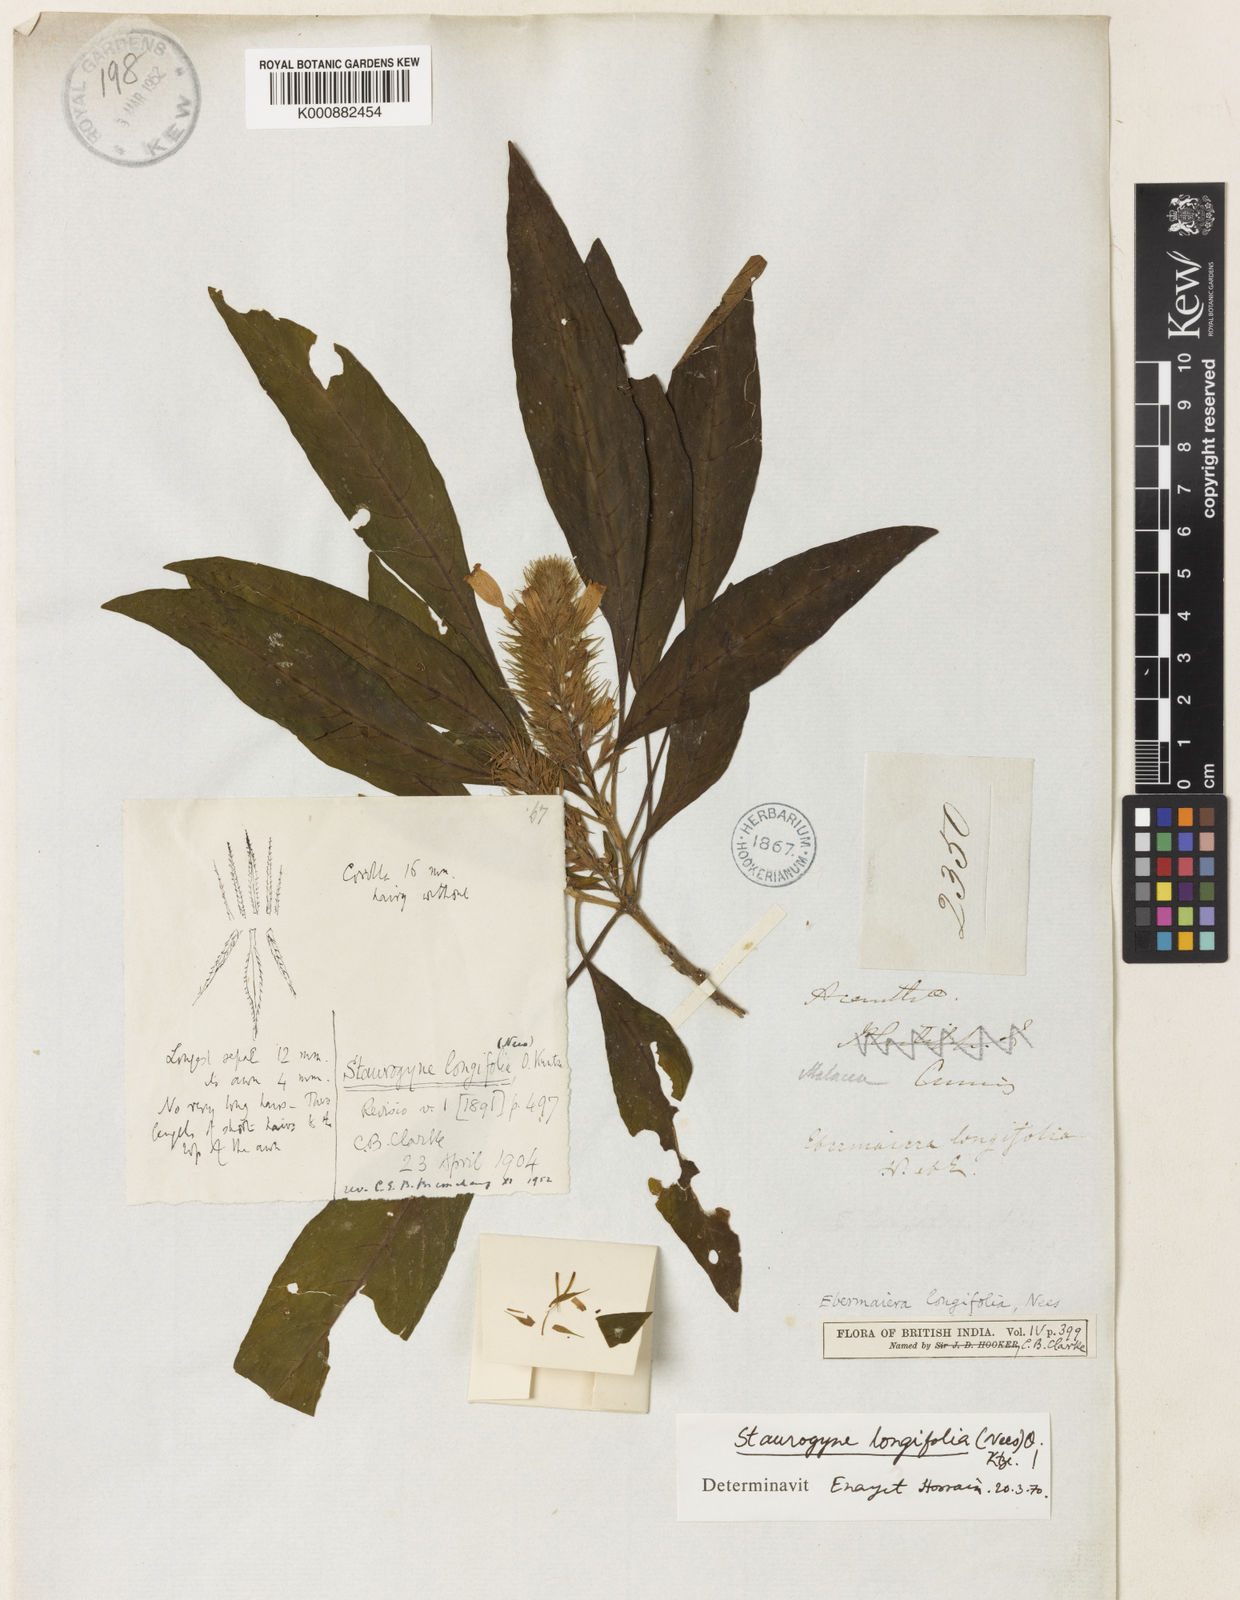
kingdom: Plantae
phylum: Tracheophyta
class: Magnoliopsida
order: Lamiales
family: Acanthaceae
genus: Staurogyne
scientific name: Staurogyne longifolia
